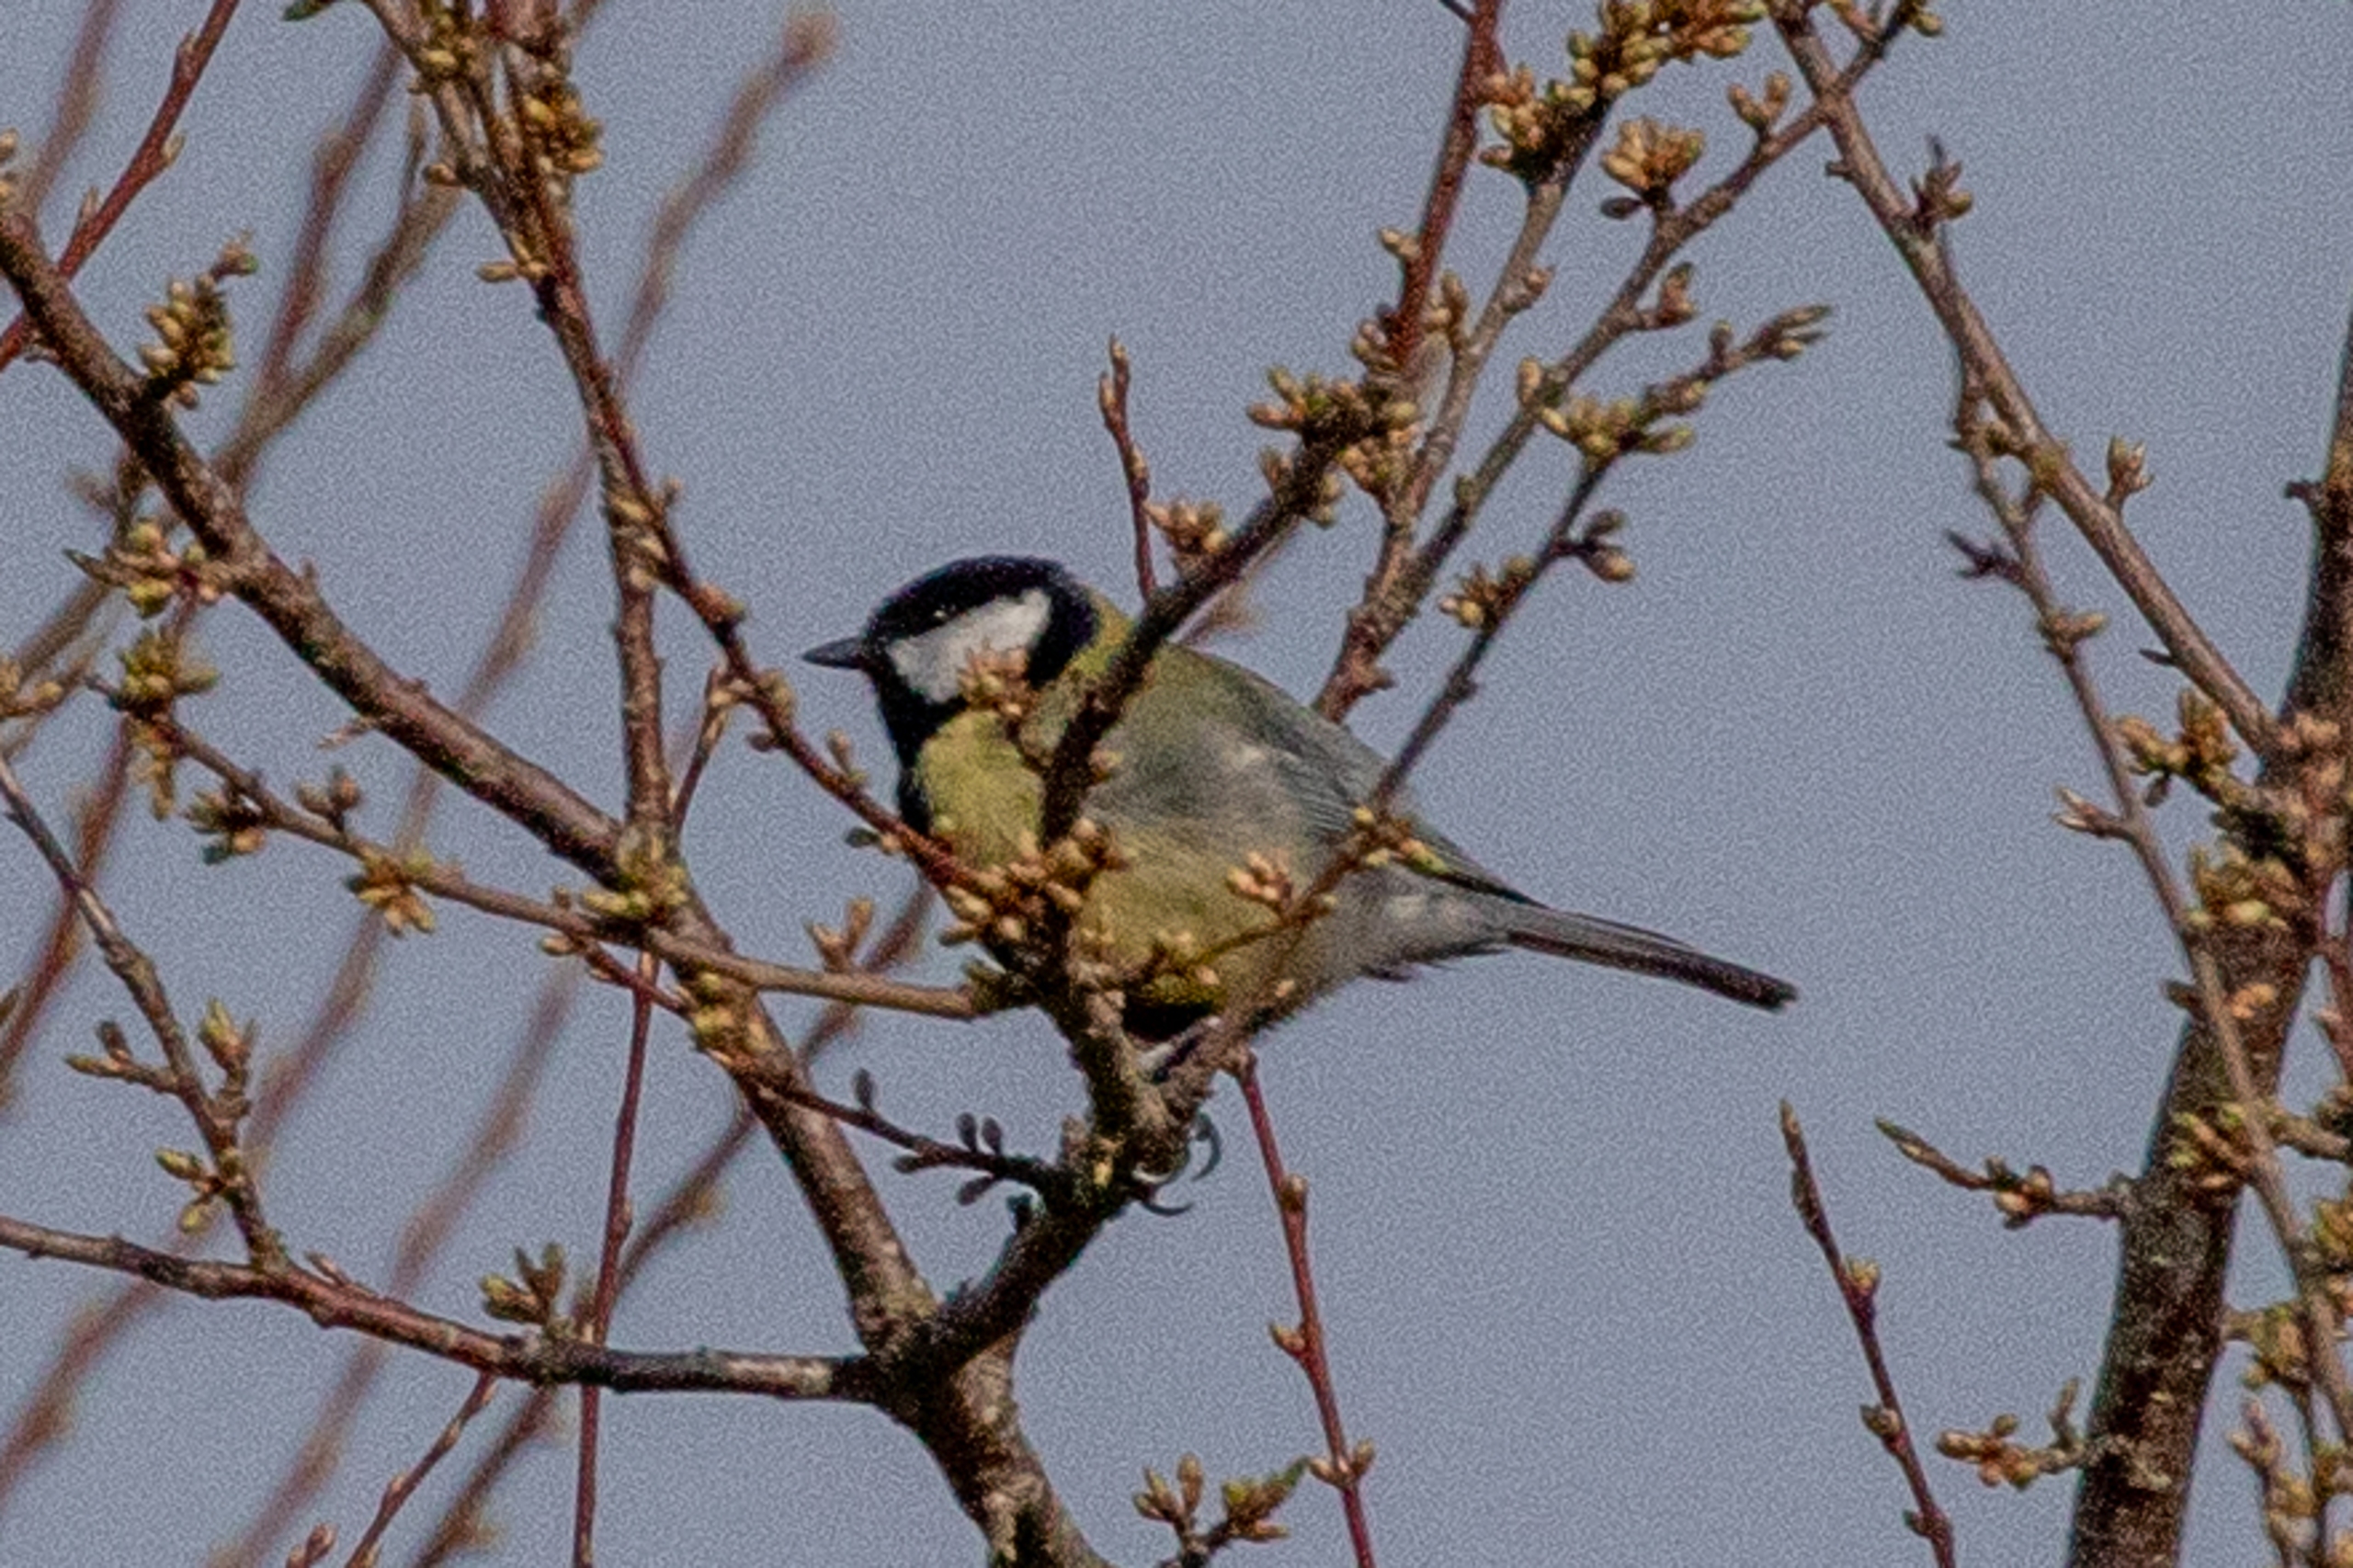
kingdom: Animalia
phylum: Chordata
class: Aves
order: Passeriformes
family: Paridae
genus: Parus
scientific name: Parus major
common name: Musvit
